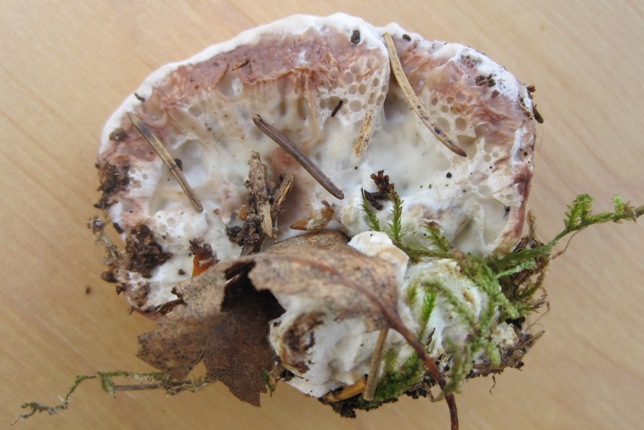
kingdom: Fungi
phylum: Basidiomycota
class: Agaricomycetes
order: Polyporales
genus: Calcipostia
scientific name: Calcipostia guttulata
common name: dråbe-kødporesvamp
